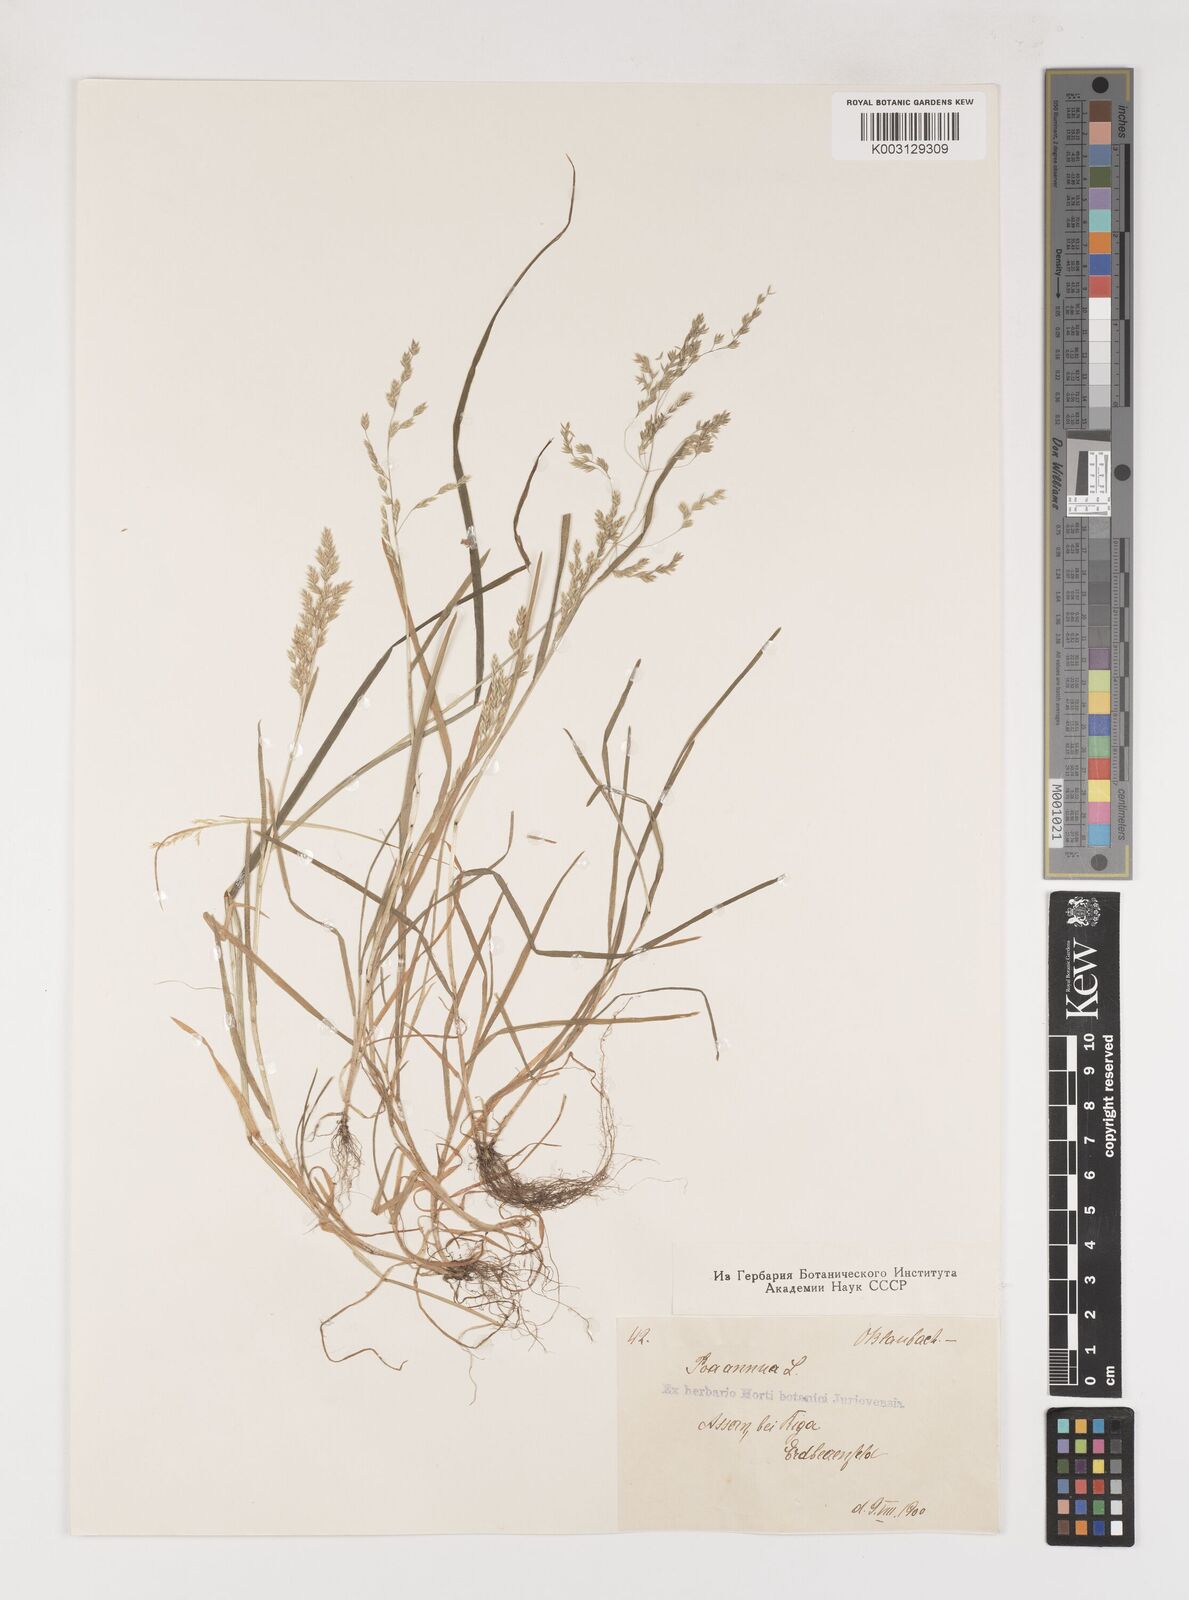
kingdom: Plantae
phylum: Tracheophyta
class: Liliopsida
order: Poales
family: Poaceae
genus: Poa
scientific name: Poa annua
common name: Annual bluegrass
